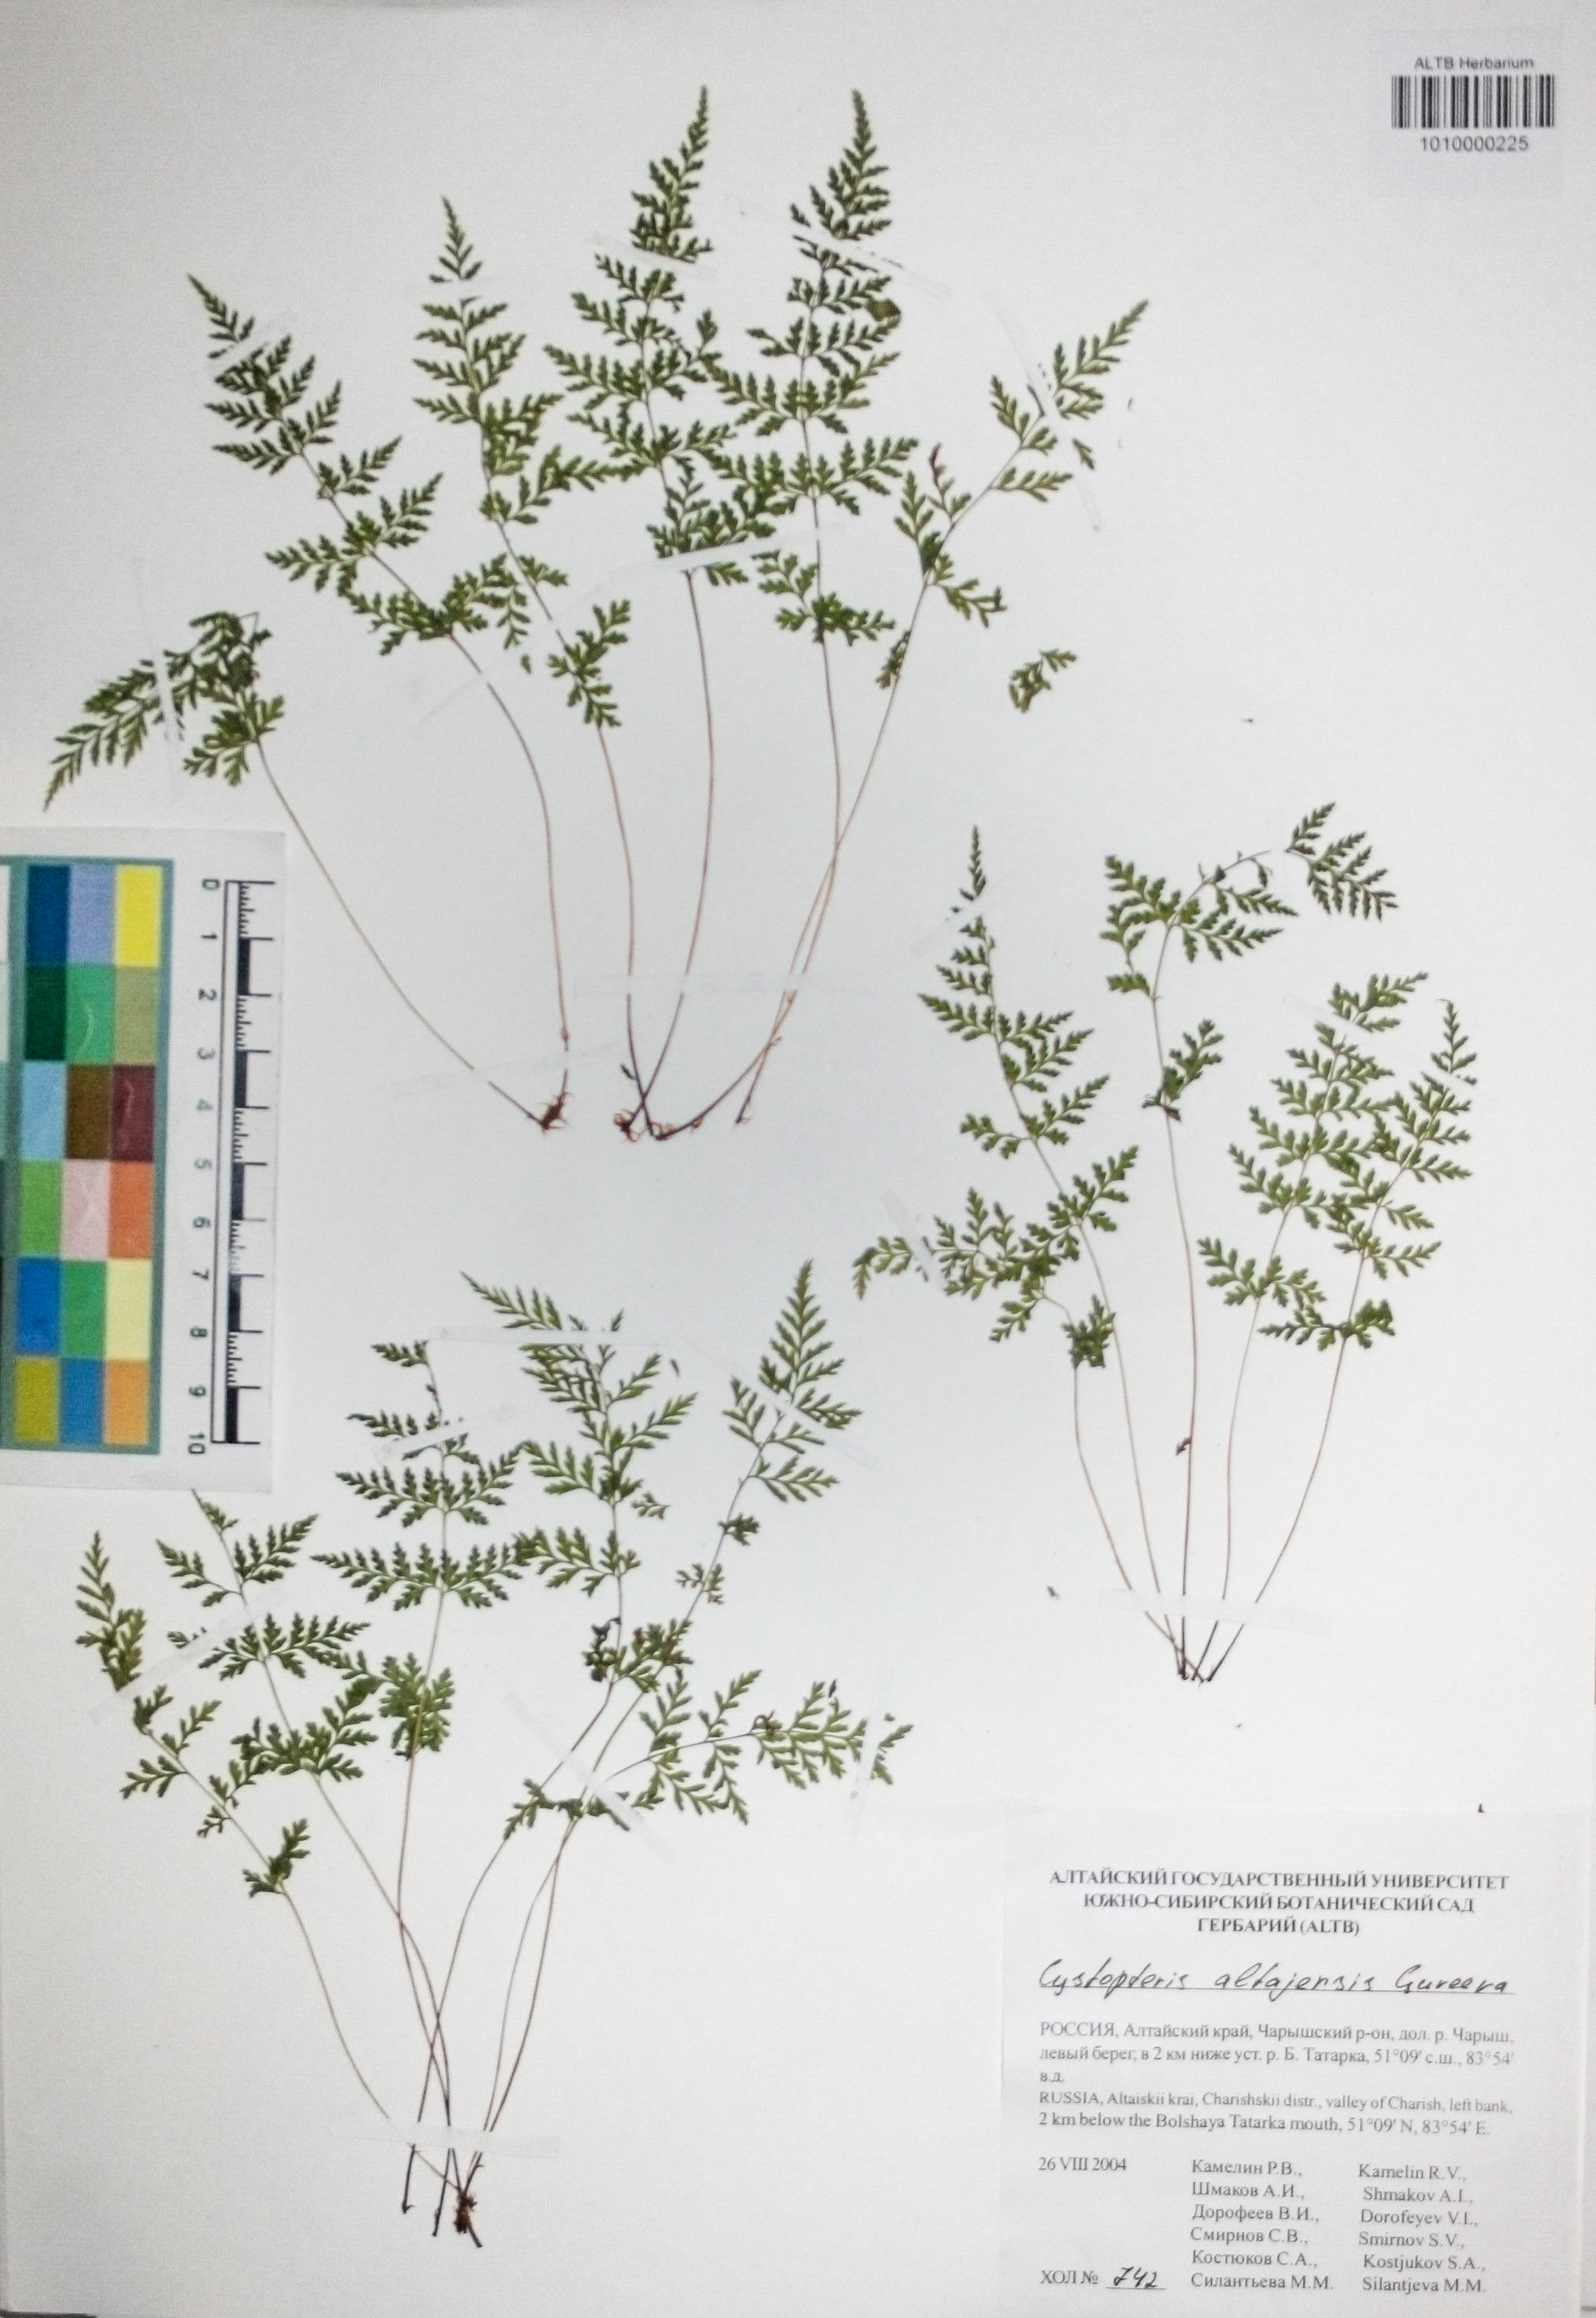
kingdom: Plantae
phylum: Tracheophyta
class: Polypodiopsida
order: Polypodiales
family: Cystopteridaceae
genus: Cystopteris
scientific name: Cystopteris diaphana
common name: Greenish bladder-fern
